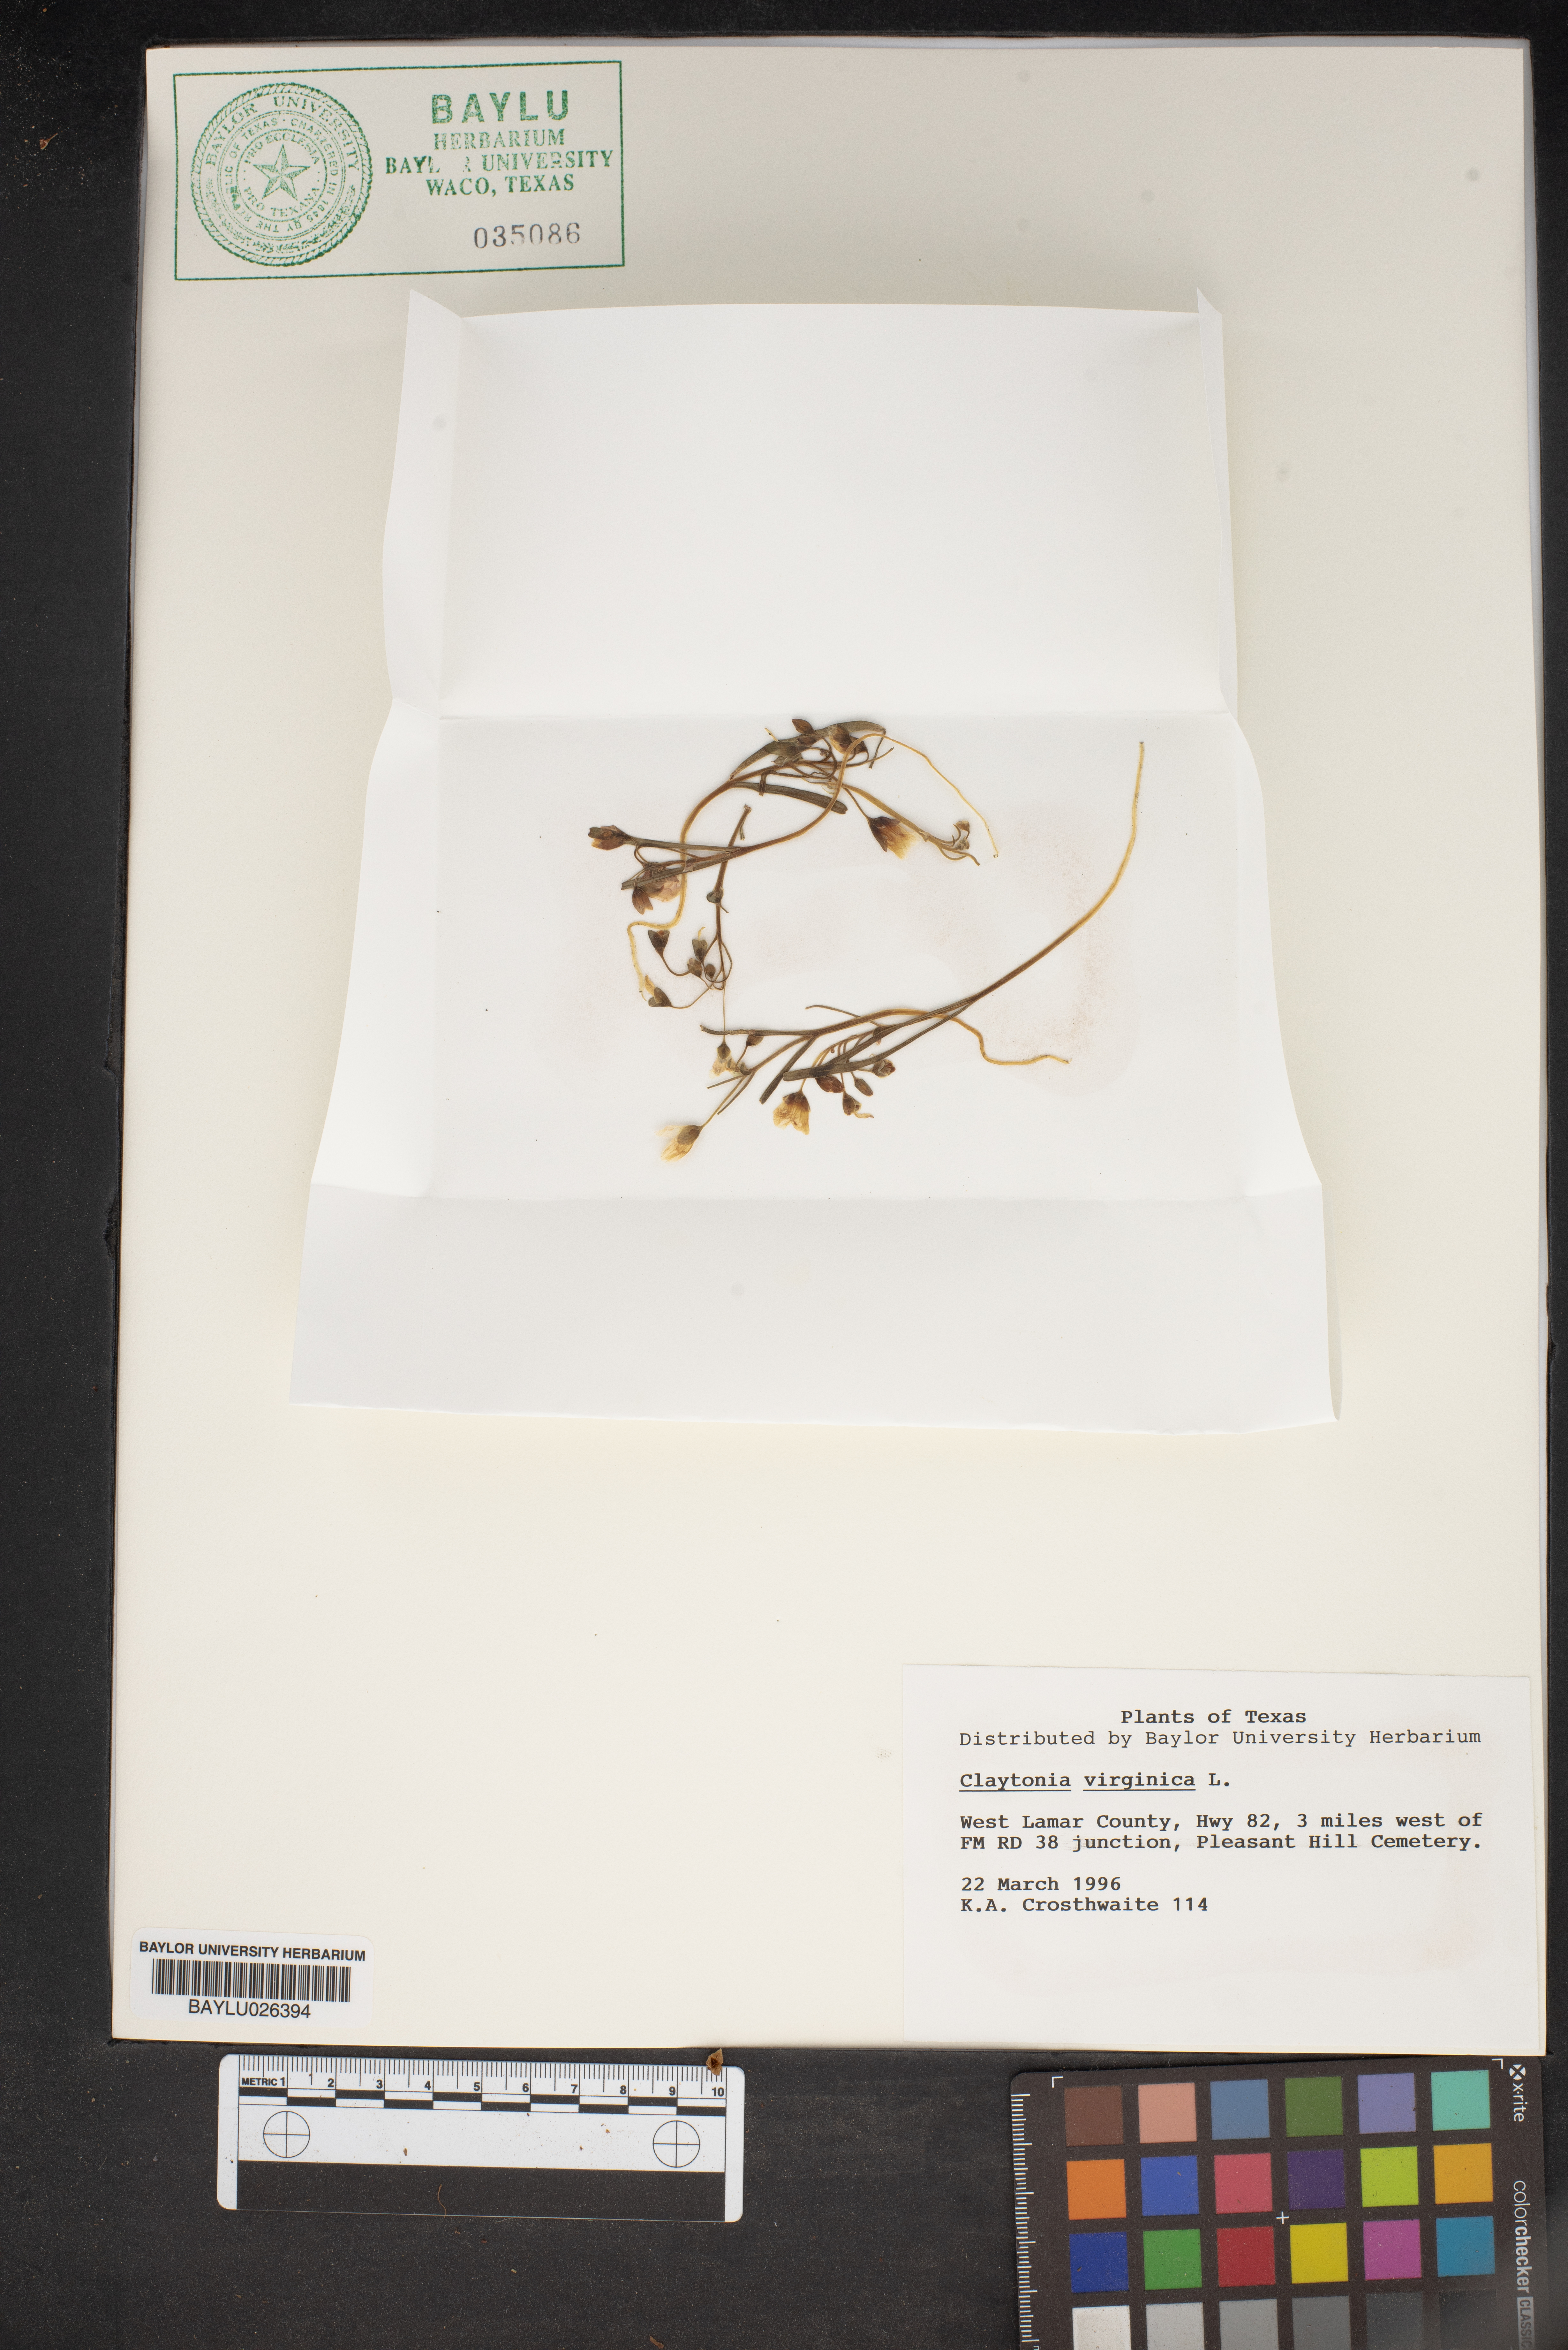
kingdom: Plantae
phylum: Tracheophyta
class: Magnoliopsida
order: Caryophyllales
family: Montiaceae
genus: Claytonia
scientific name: Claytonia virginica
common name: Virginia springbeauty
